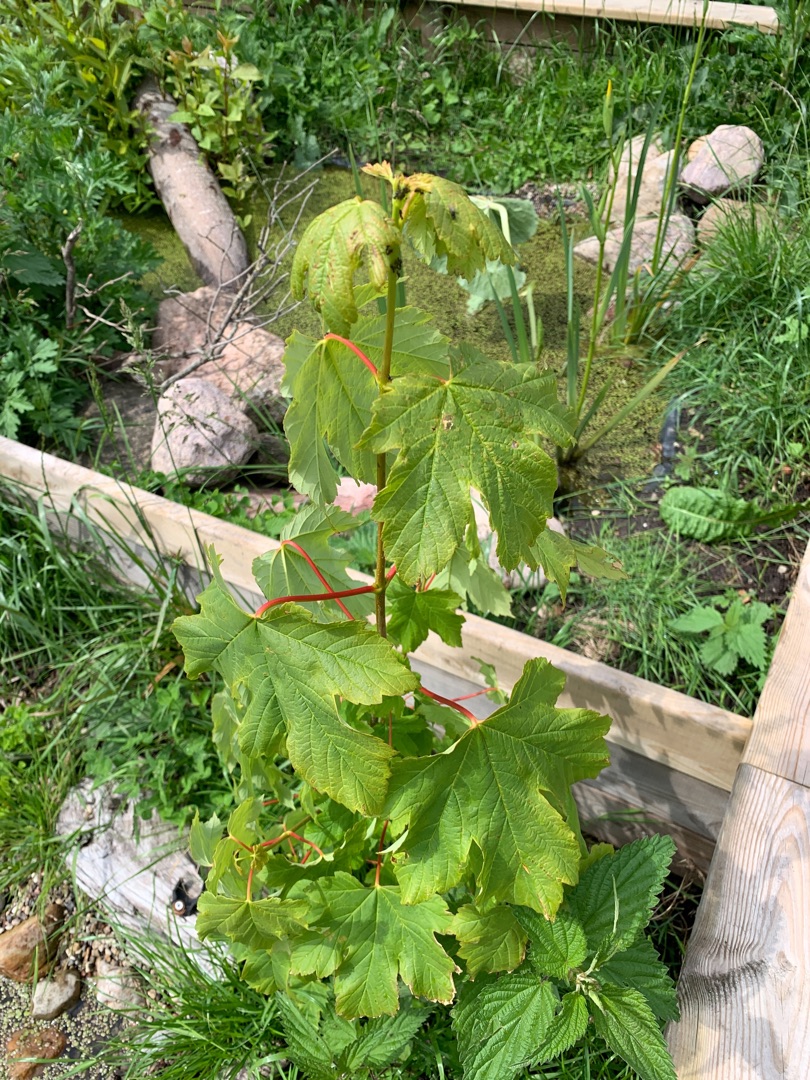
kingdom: Plantae
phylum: Tracheophyta
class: Magnoliopsida
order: Sapindales
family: Sapindaceae
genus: Acer
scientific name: Acer pseudoplatanus
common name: Ahorn
